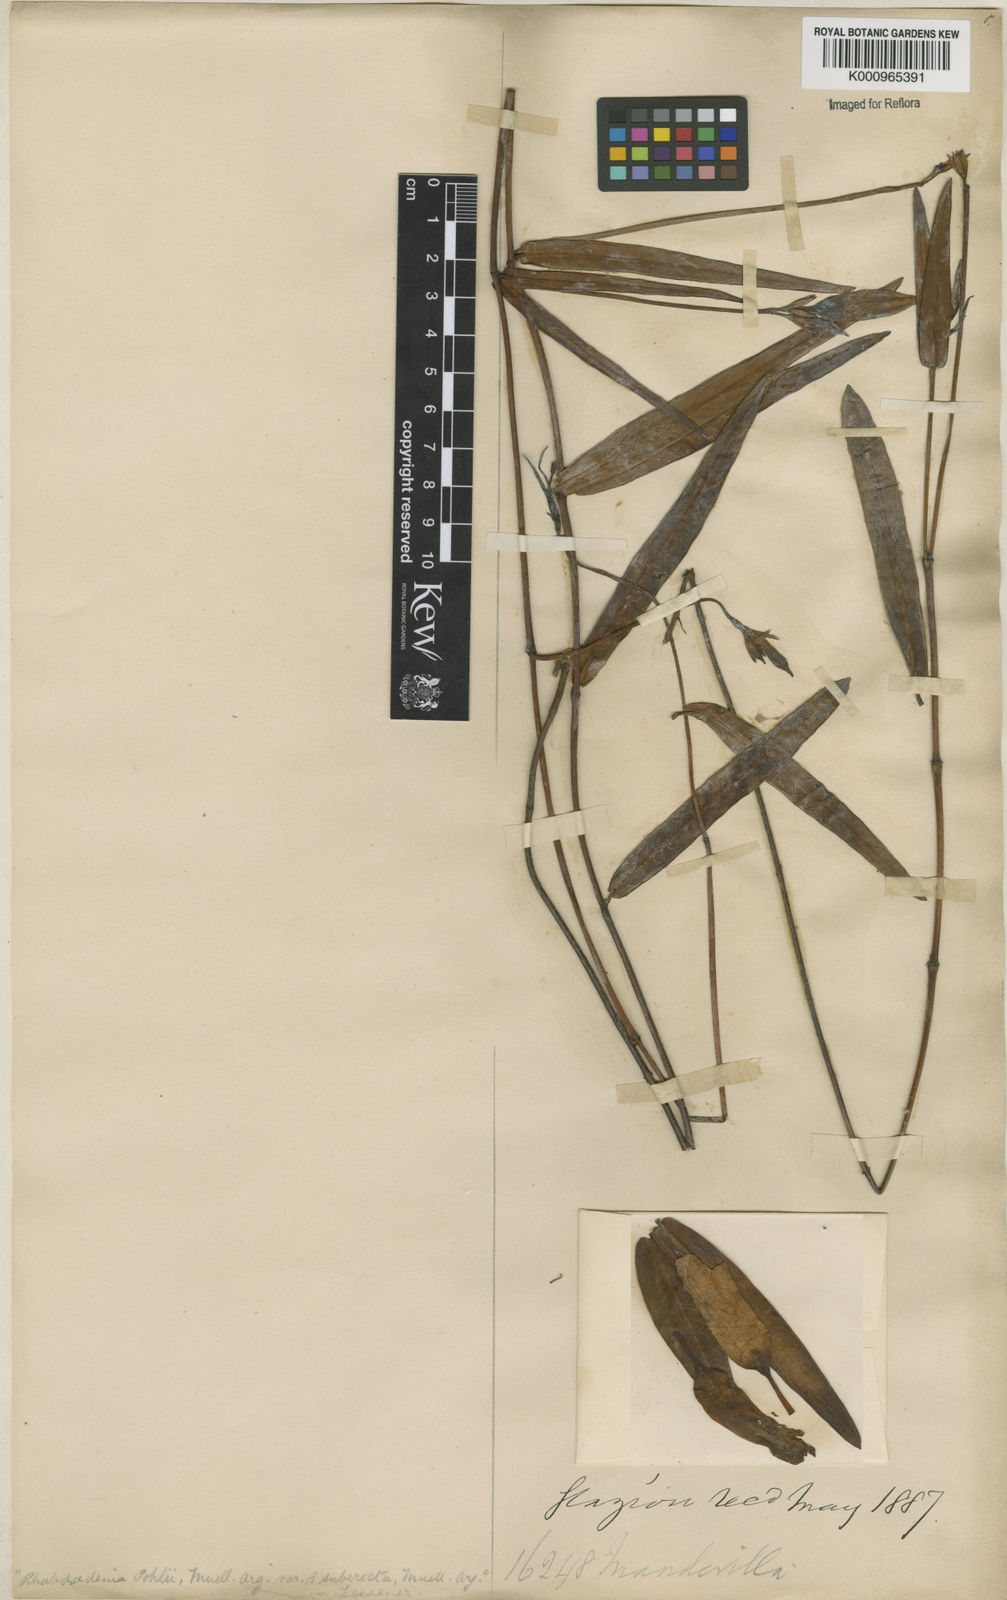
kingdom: Plantae
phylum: Tracheophyta
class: Magnoliopsida
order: Gentianales
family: Apocynaceae
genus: Rhabdadenia
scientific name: Rhabdadenia madida
